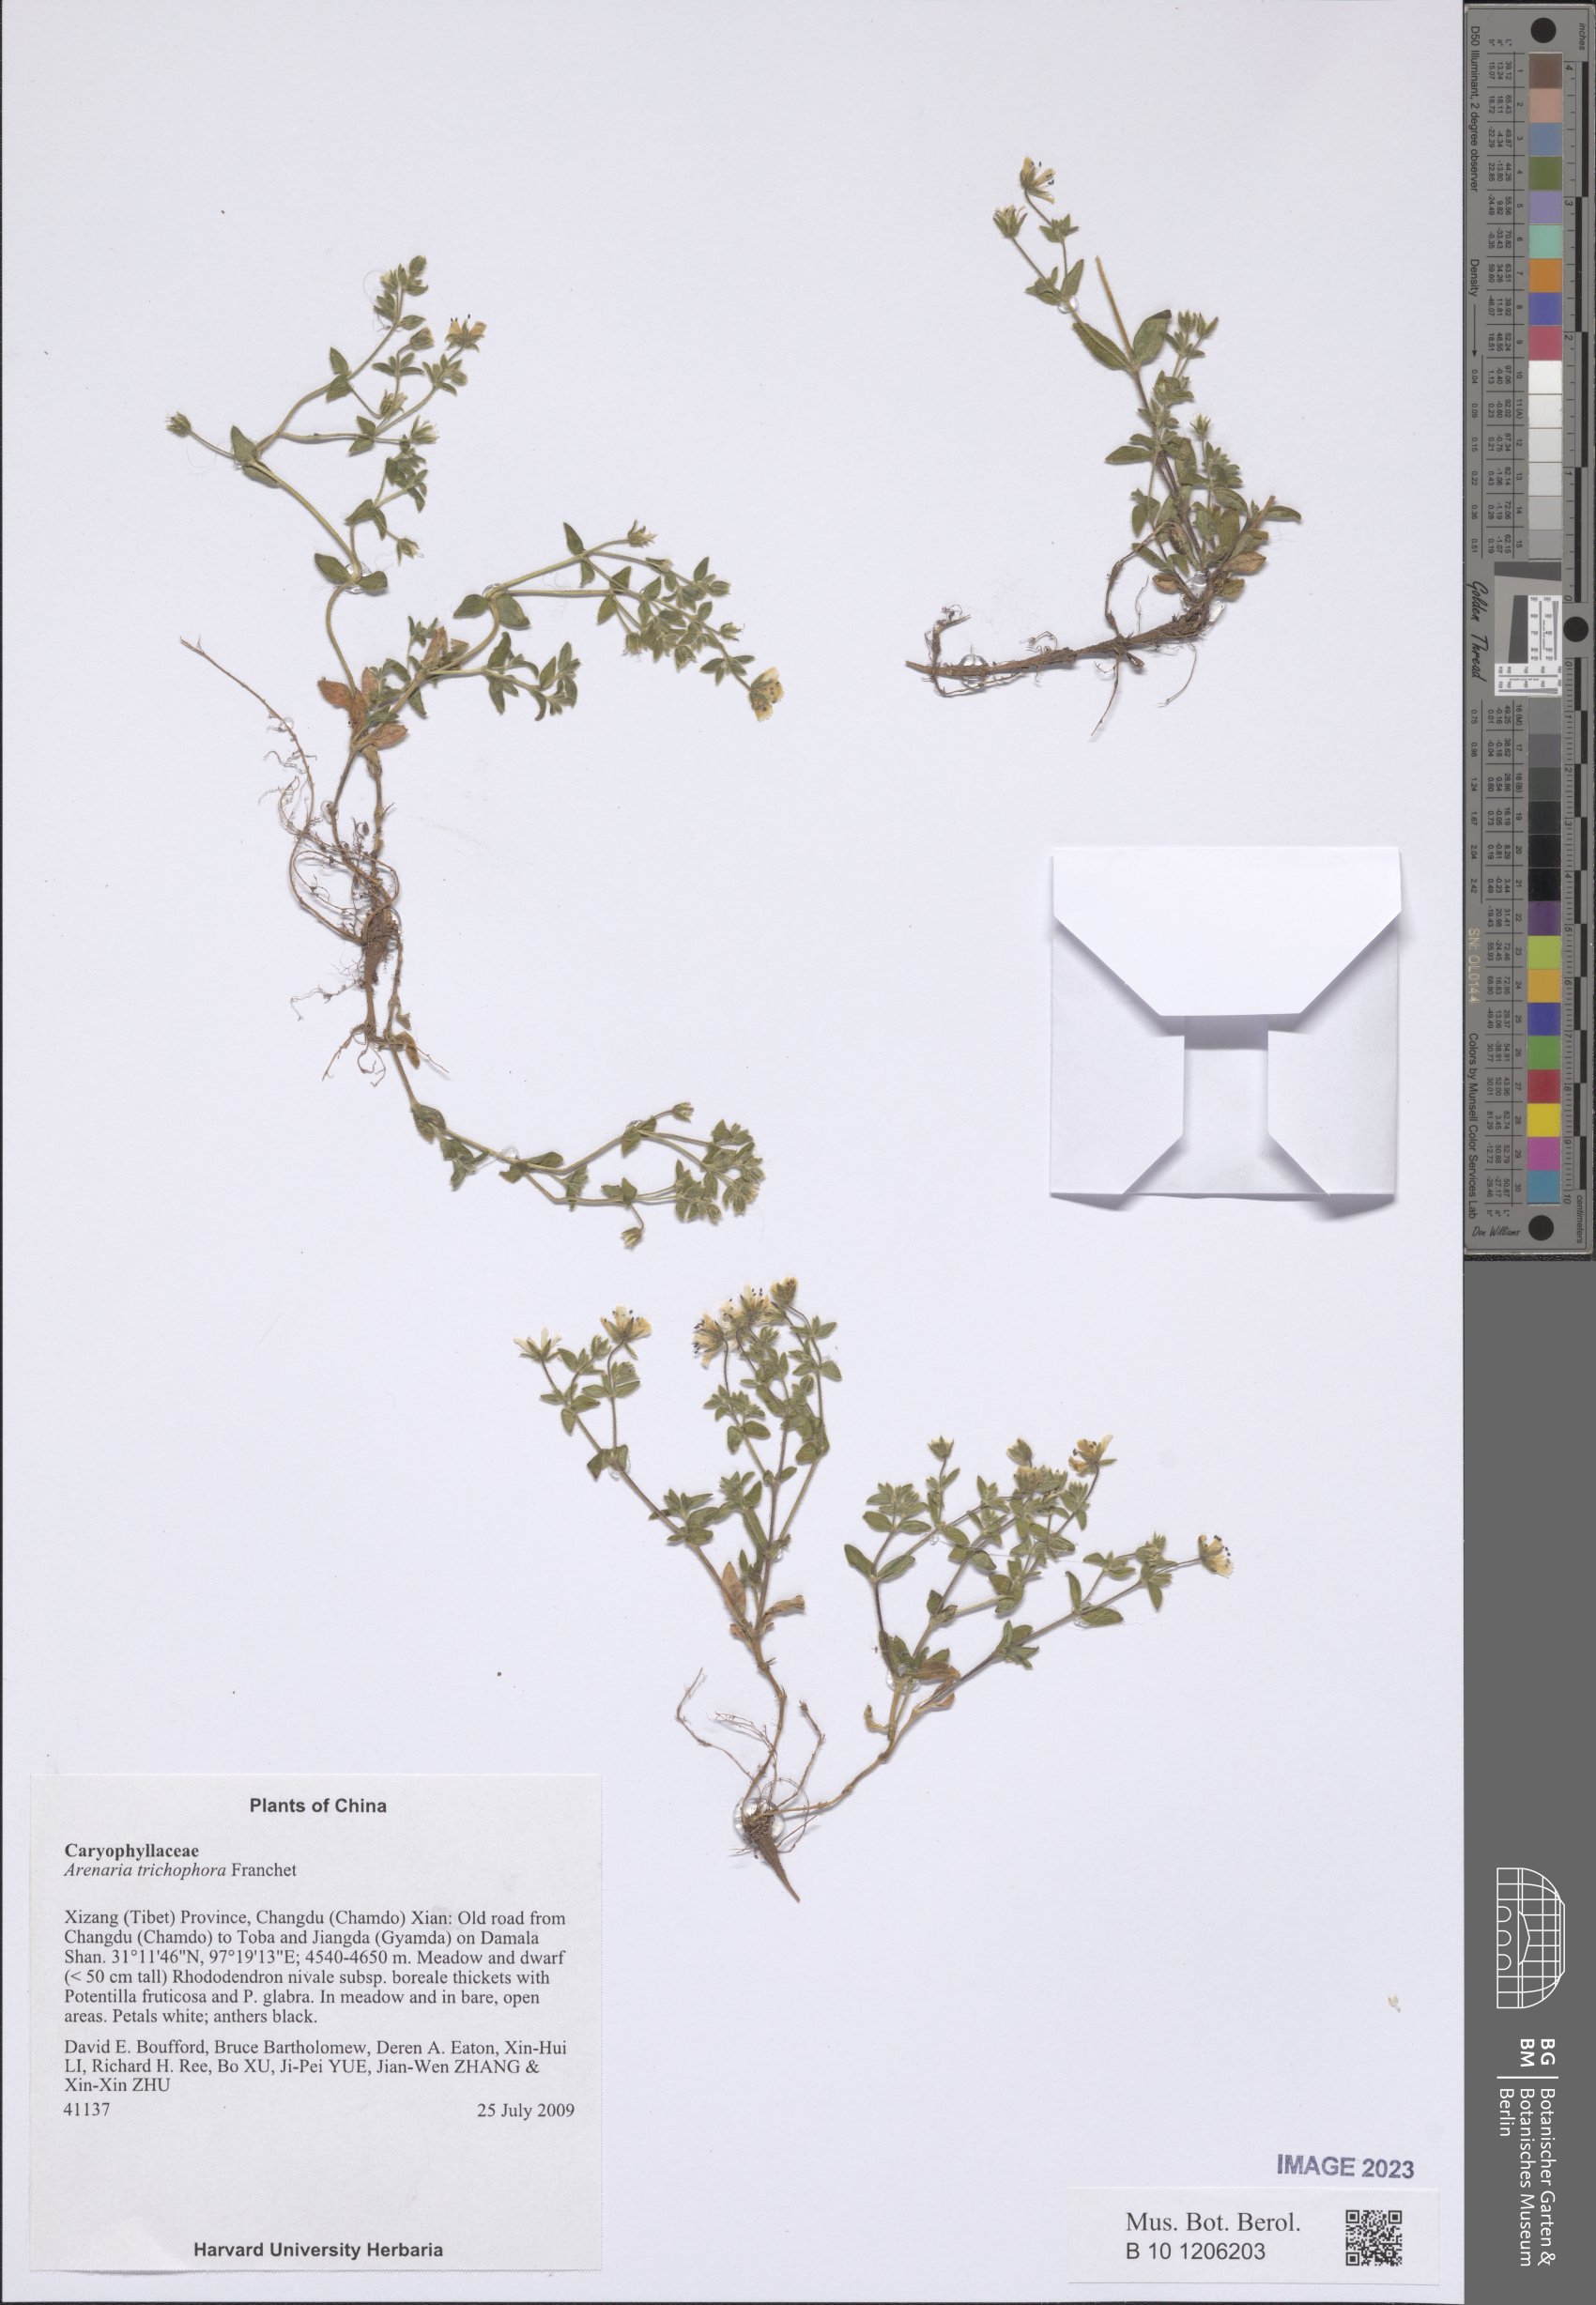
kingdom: Plantae
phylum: Tracheophyta
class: Magnoliopsida
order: Caryophyllales
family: Caryophyllaceae
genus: Odontostemma
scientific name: Odontostemma trichophorum
